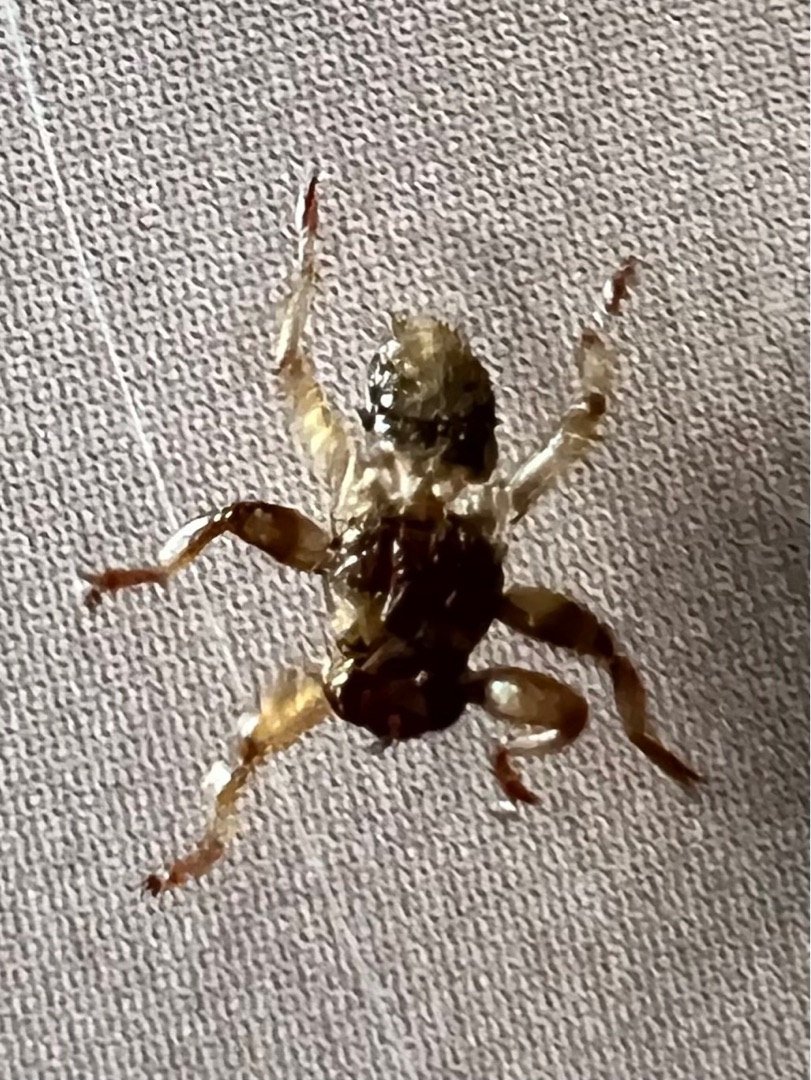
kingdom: Animalia
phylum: Arthropoda
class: Insecta
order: Diptera
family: Hippoboscidae
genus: Lipoptena
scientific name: Lipoptena cervi
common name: Hjortelus
